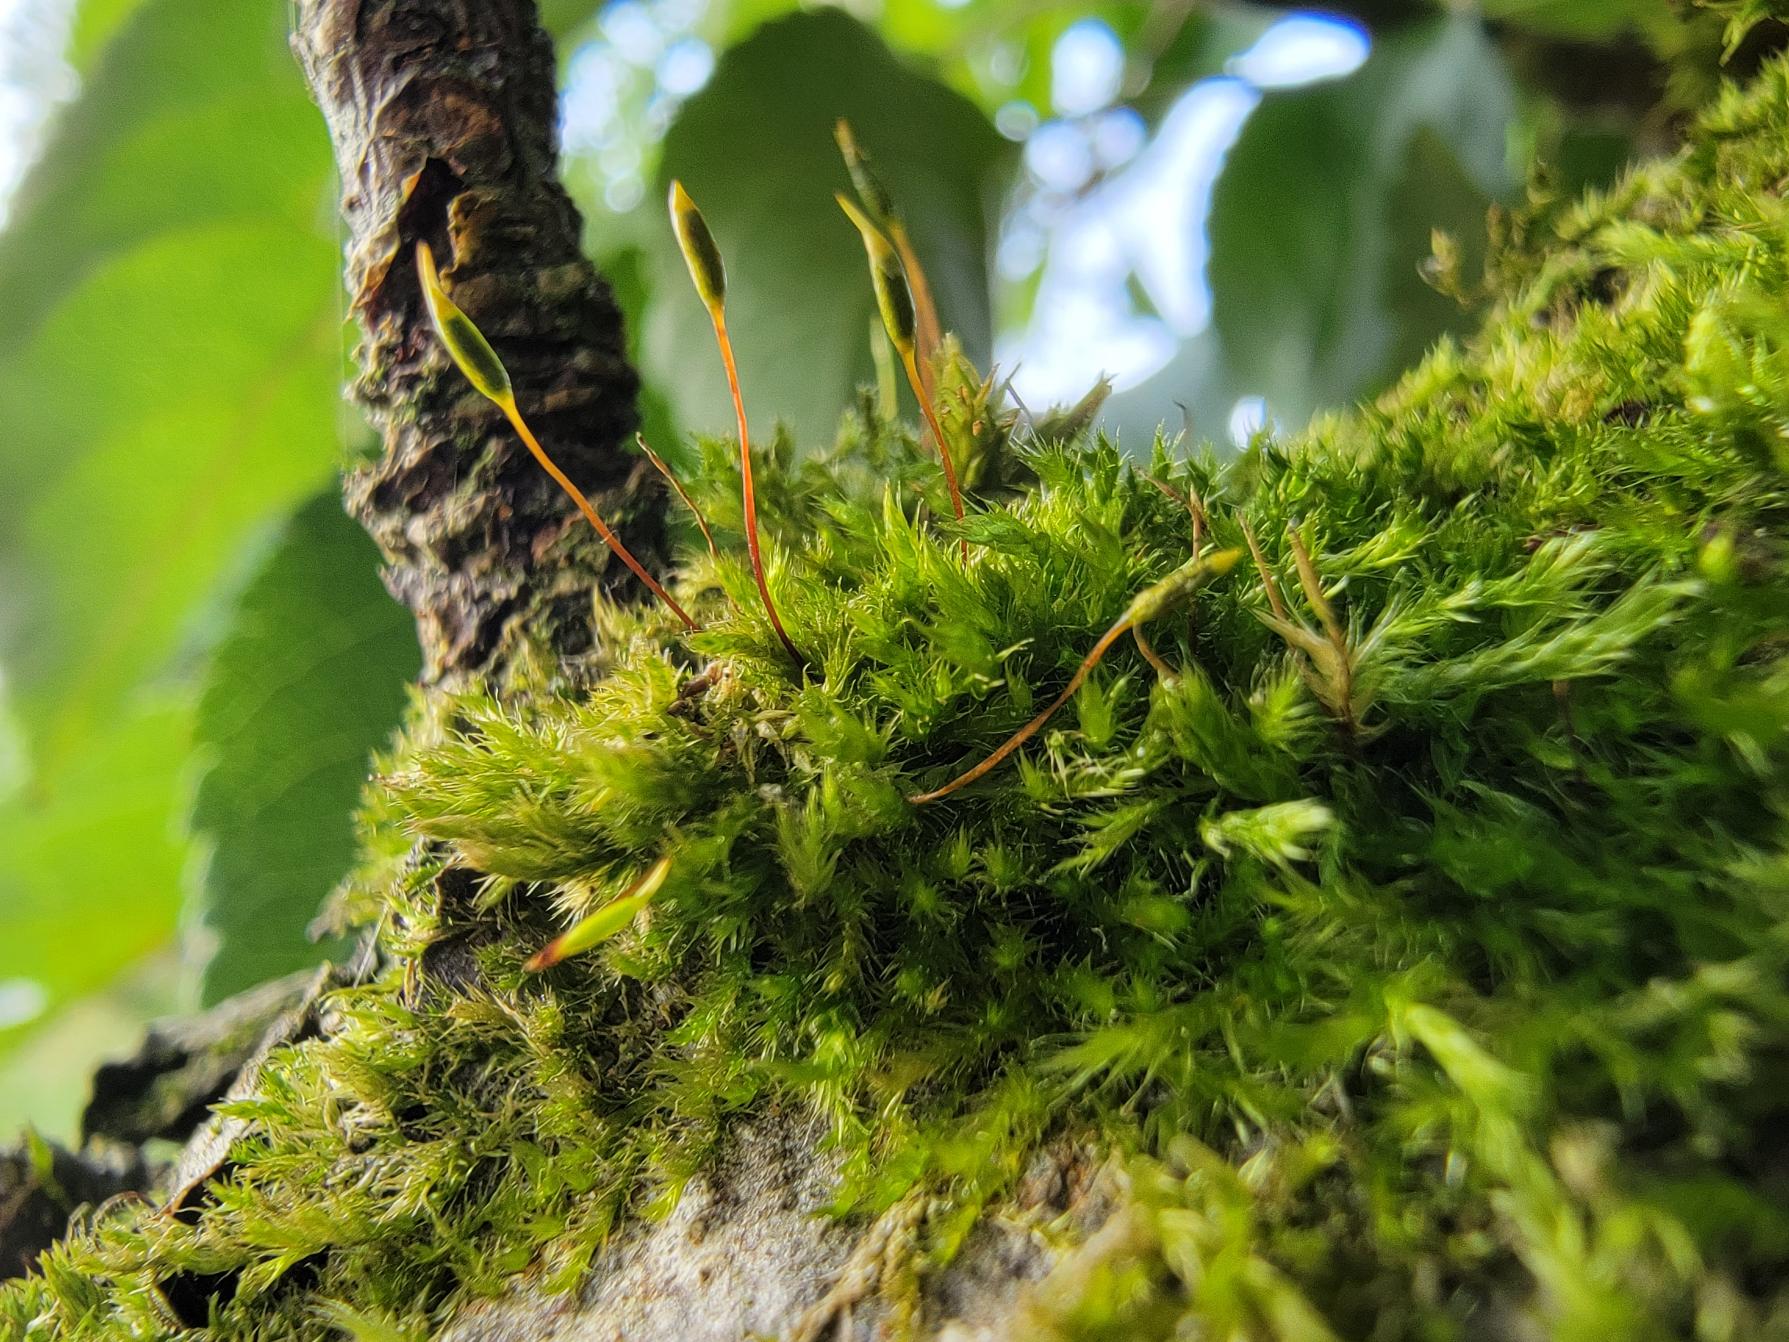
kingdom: Plantae
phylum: Bryophyta
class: Bryopsida
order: Hypnales
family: Pylaisiaceae
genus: Pylaisia
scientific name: Pylaisia polyantha
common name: Mangefrugtet aspemos
